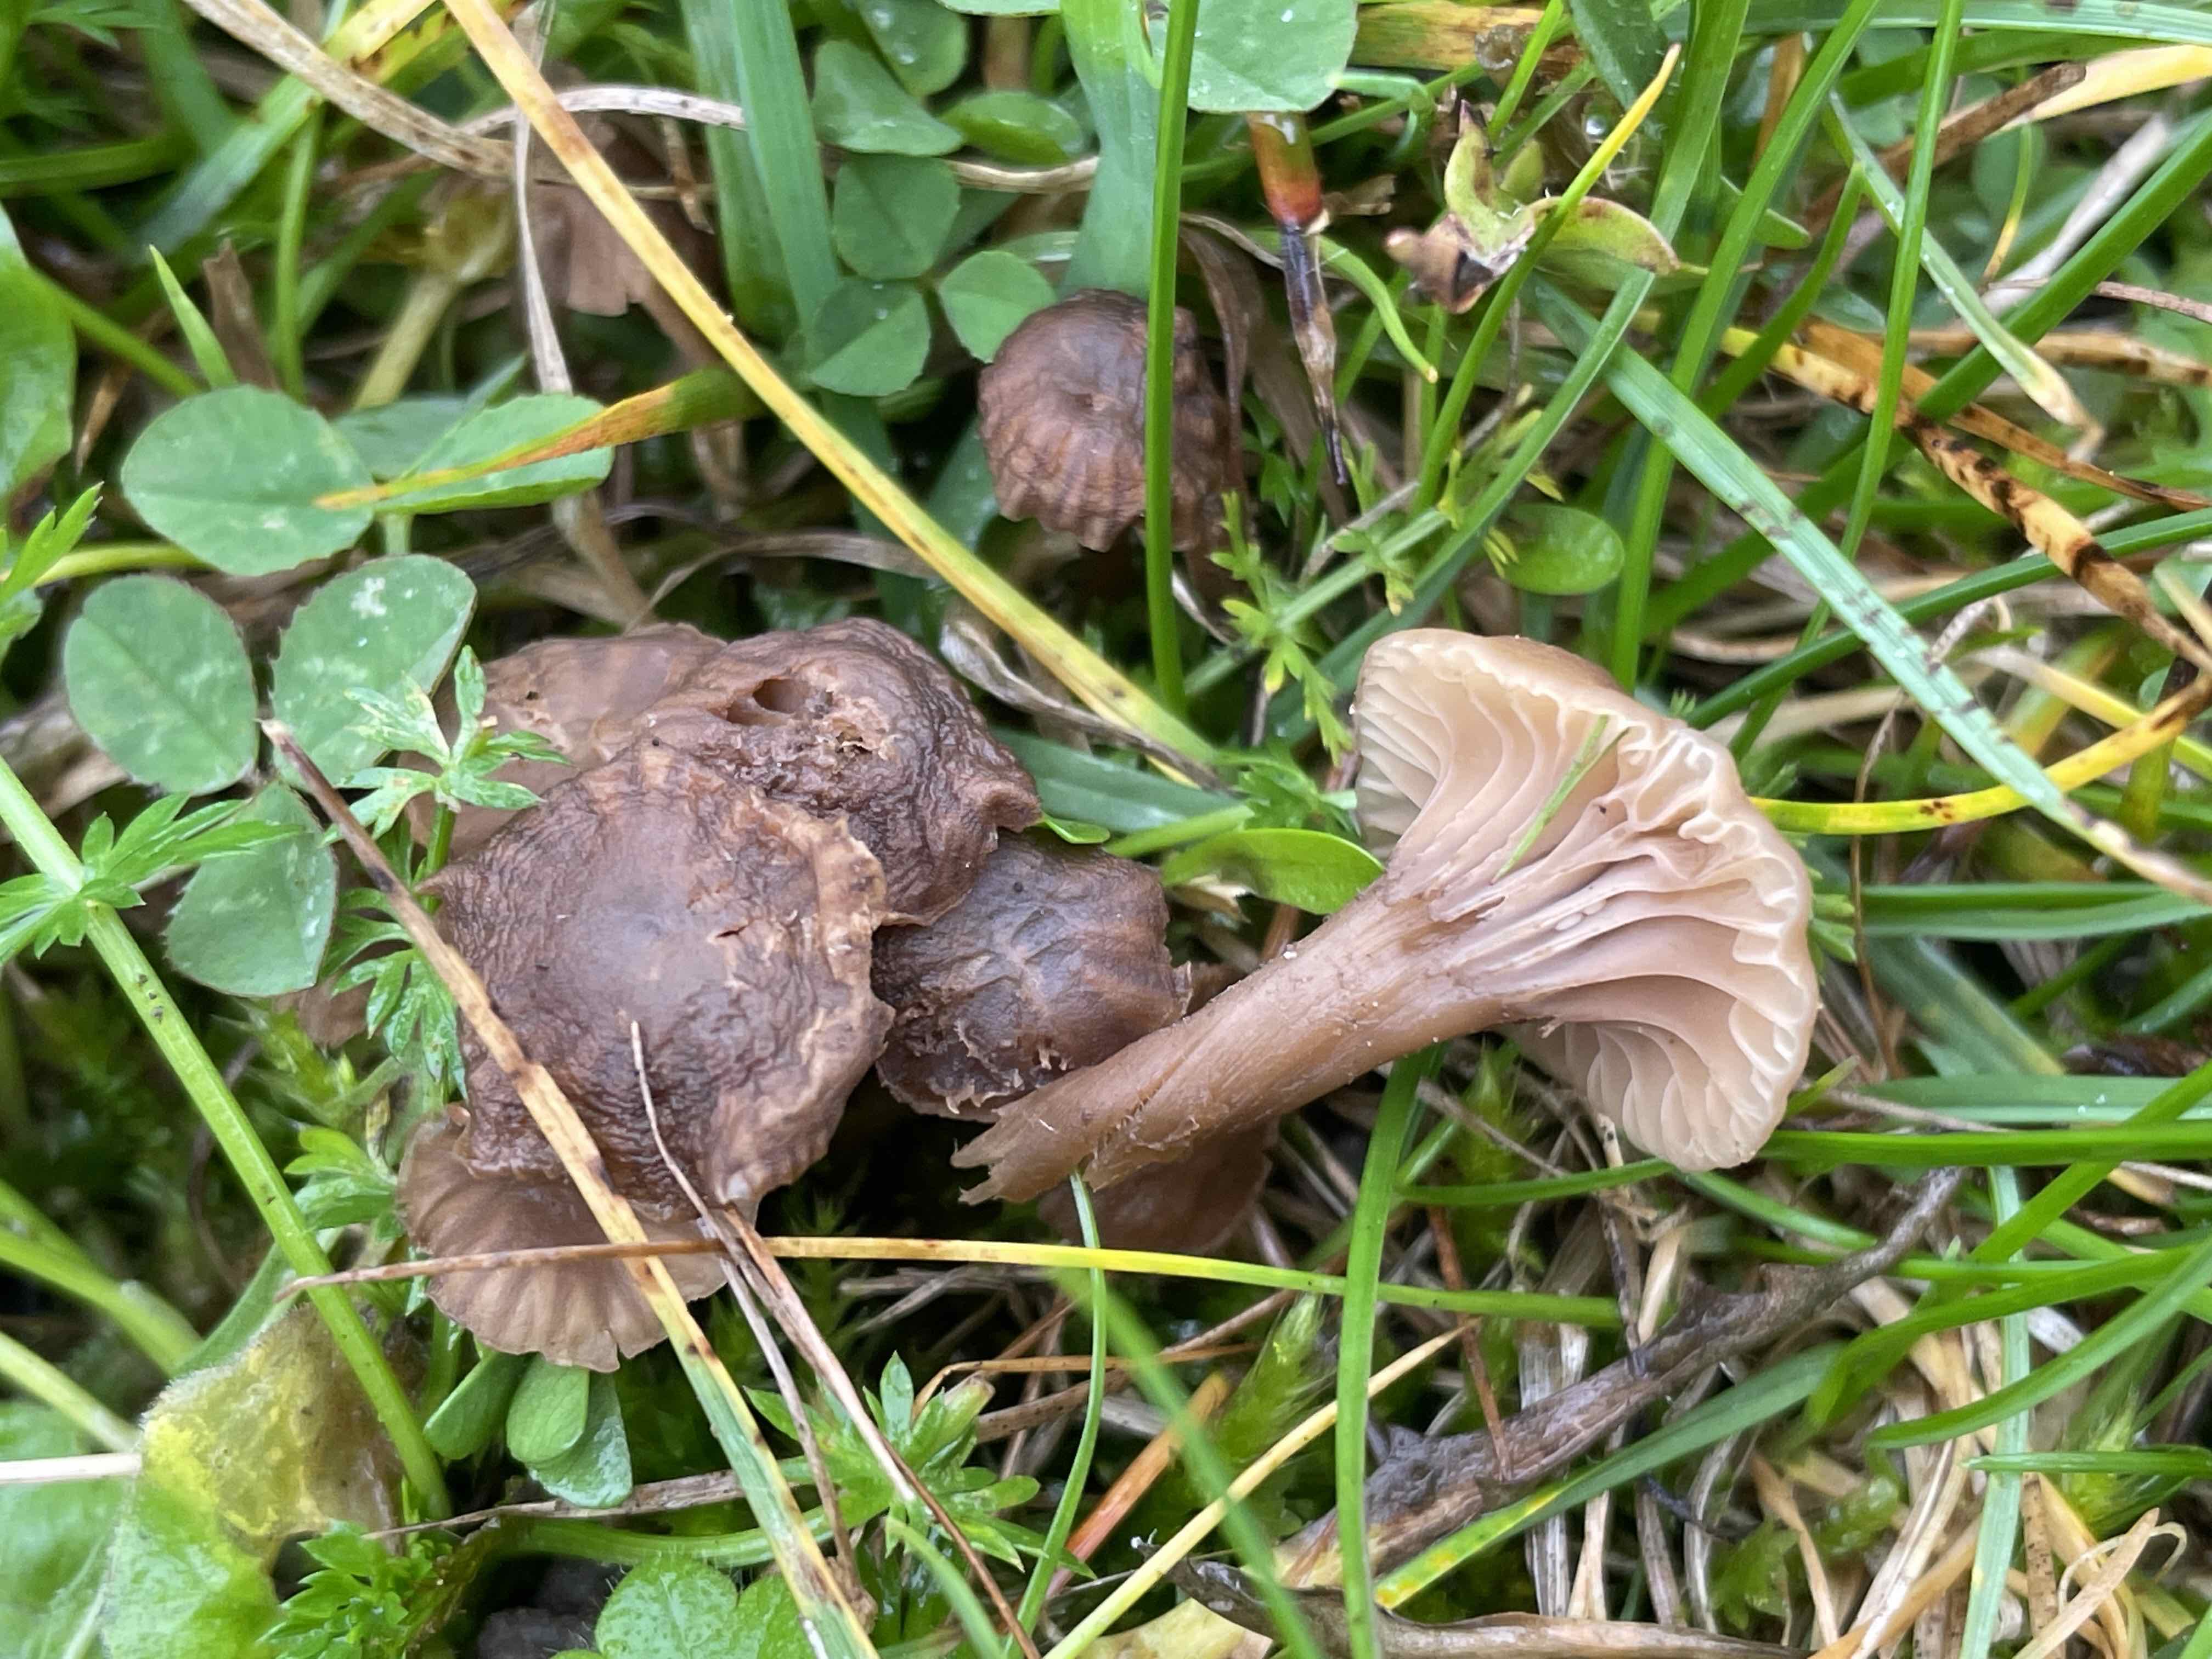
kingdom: Fungi
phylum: Basidiomycota
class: Agaricomycetes
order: Agaricales
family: Clavariaceae
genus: Hodophilus
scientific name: Hodophilus
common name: kratvokshat
